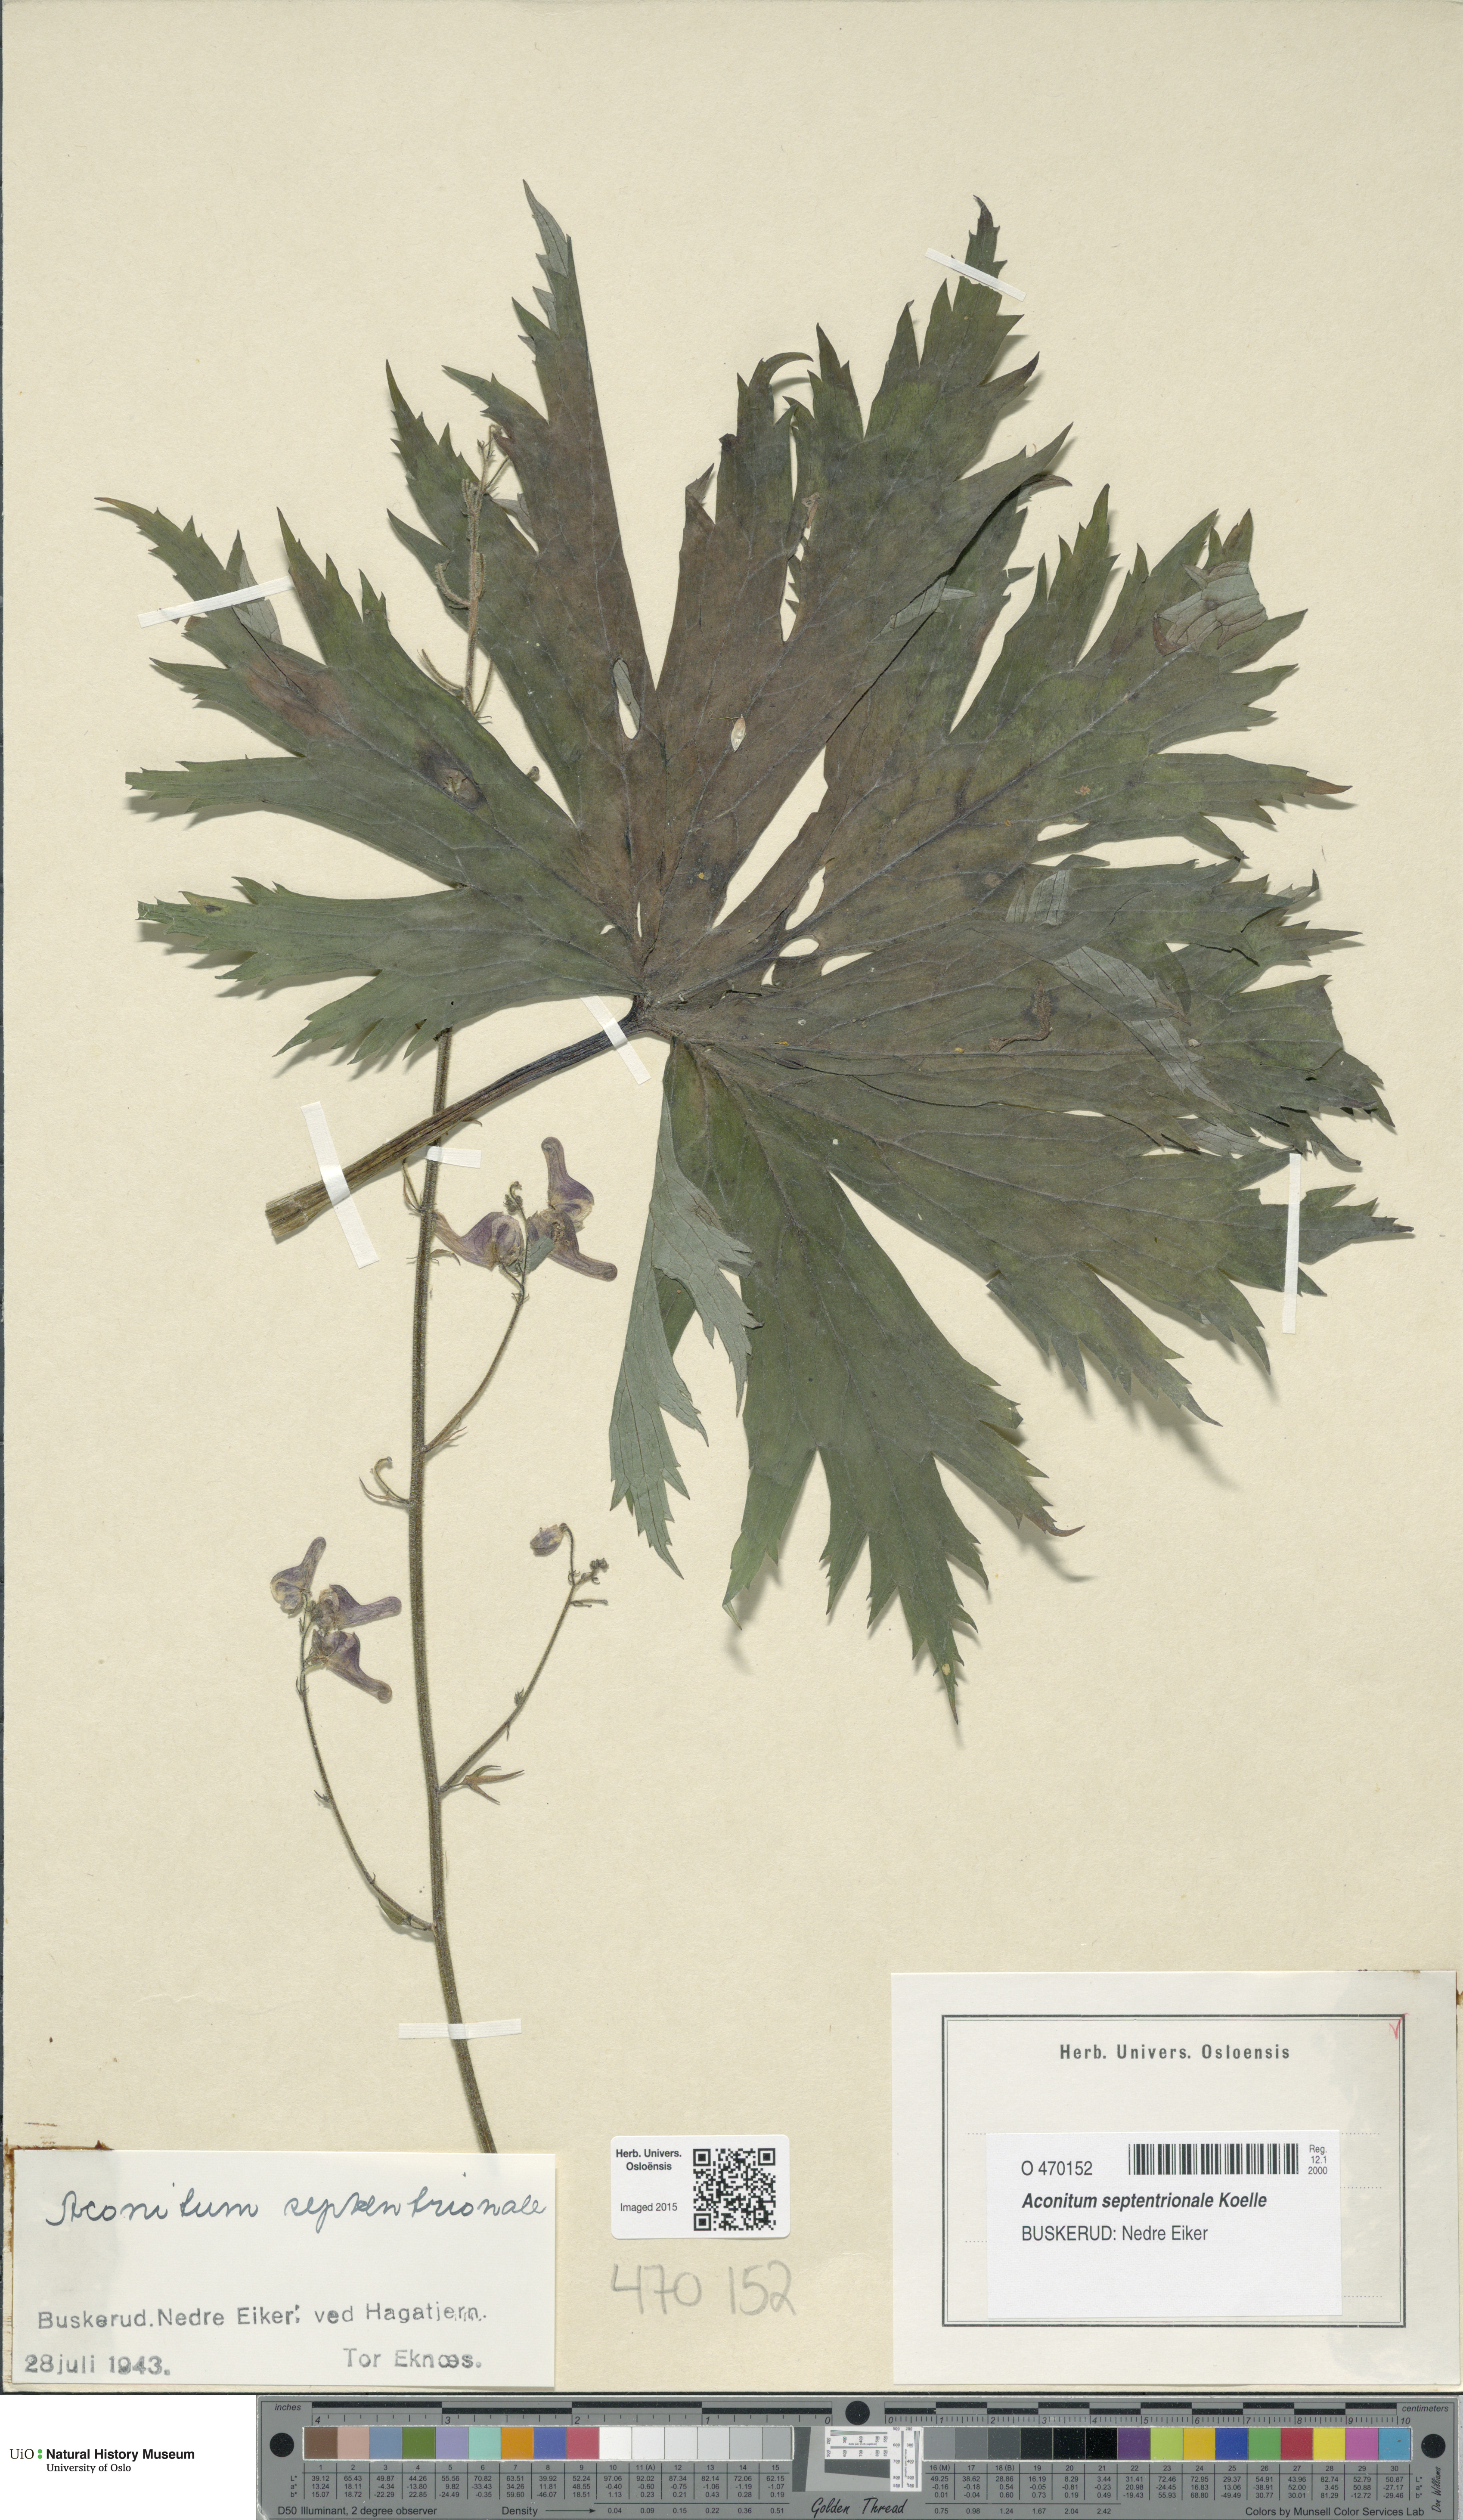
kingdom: Plantae
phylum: Tracheophyta
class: Magnoliopsida
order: Ranunculales
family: Ranunculaceae
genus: Aconitum
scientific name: Aconitum septentrionale
